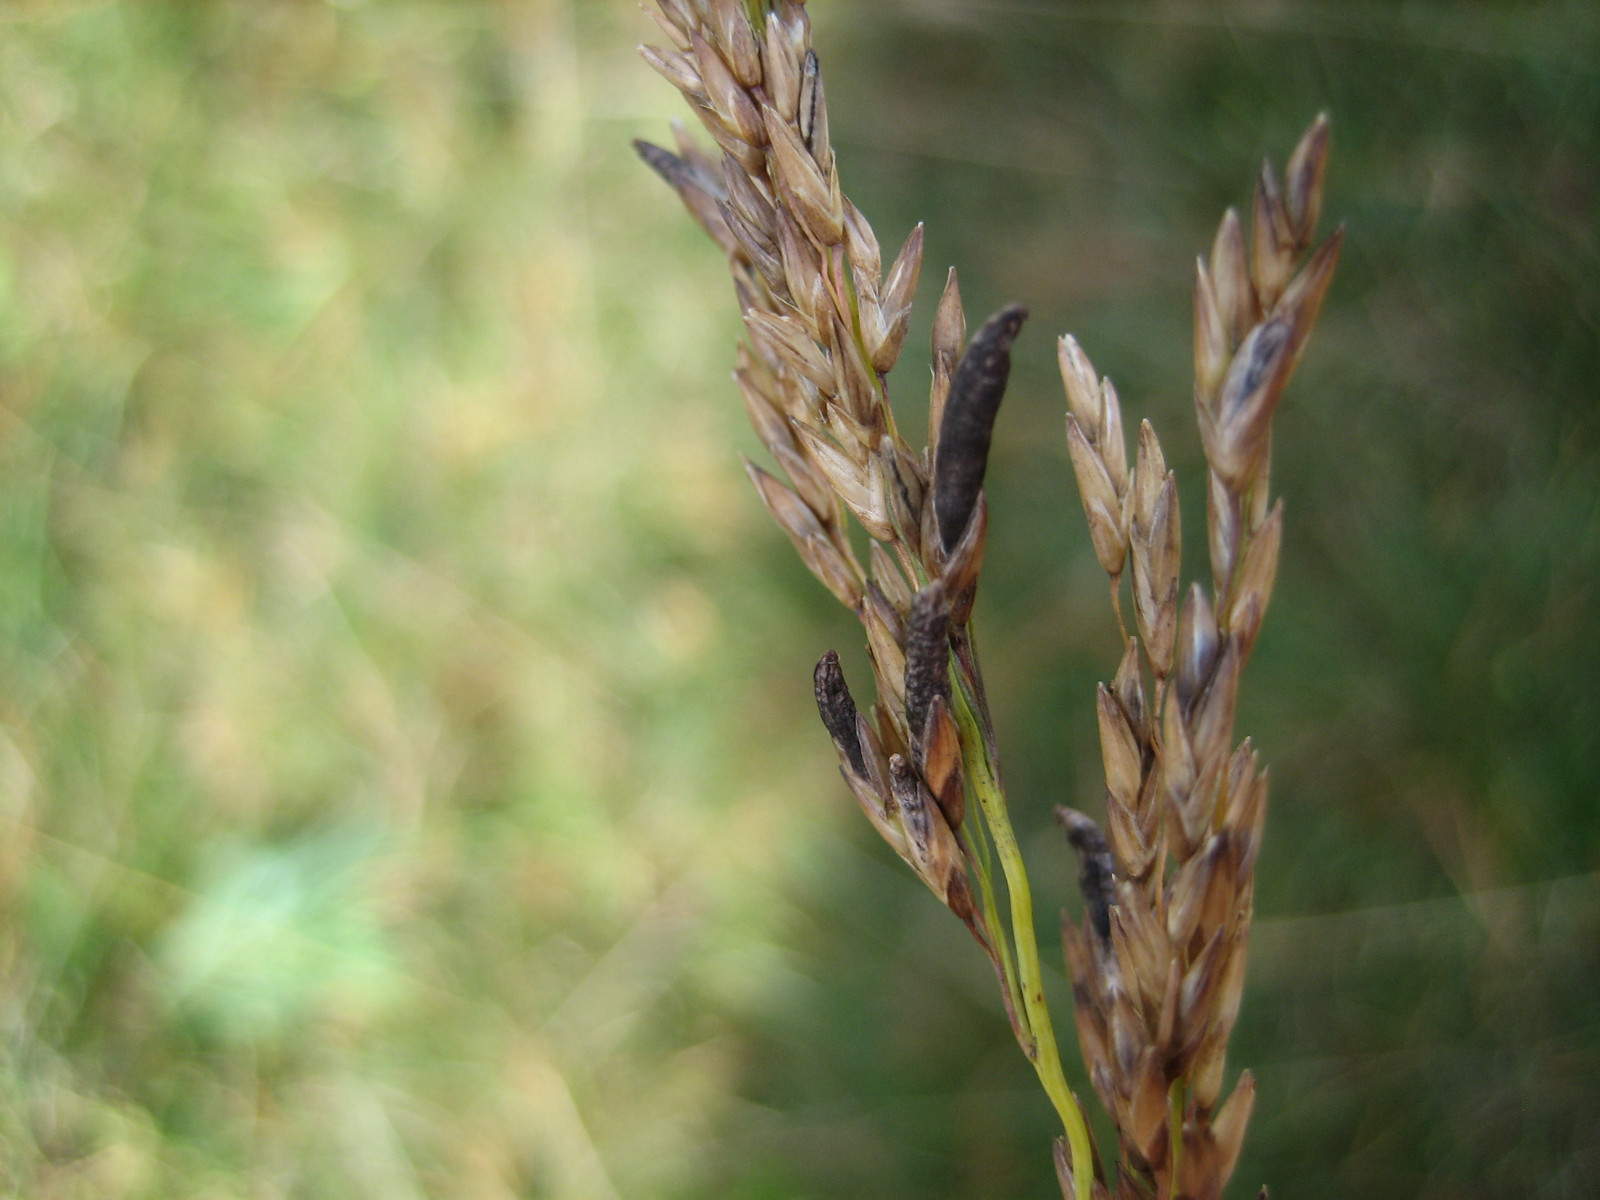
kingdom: Fungi
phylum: Ascomycota
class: Sordariomycetes
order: Hypocreales
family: Clavicipitaceae
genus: Claviceps
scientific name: Claviceps purpurea
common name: almindelig meldrøjer
